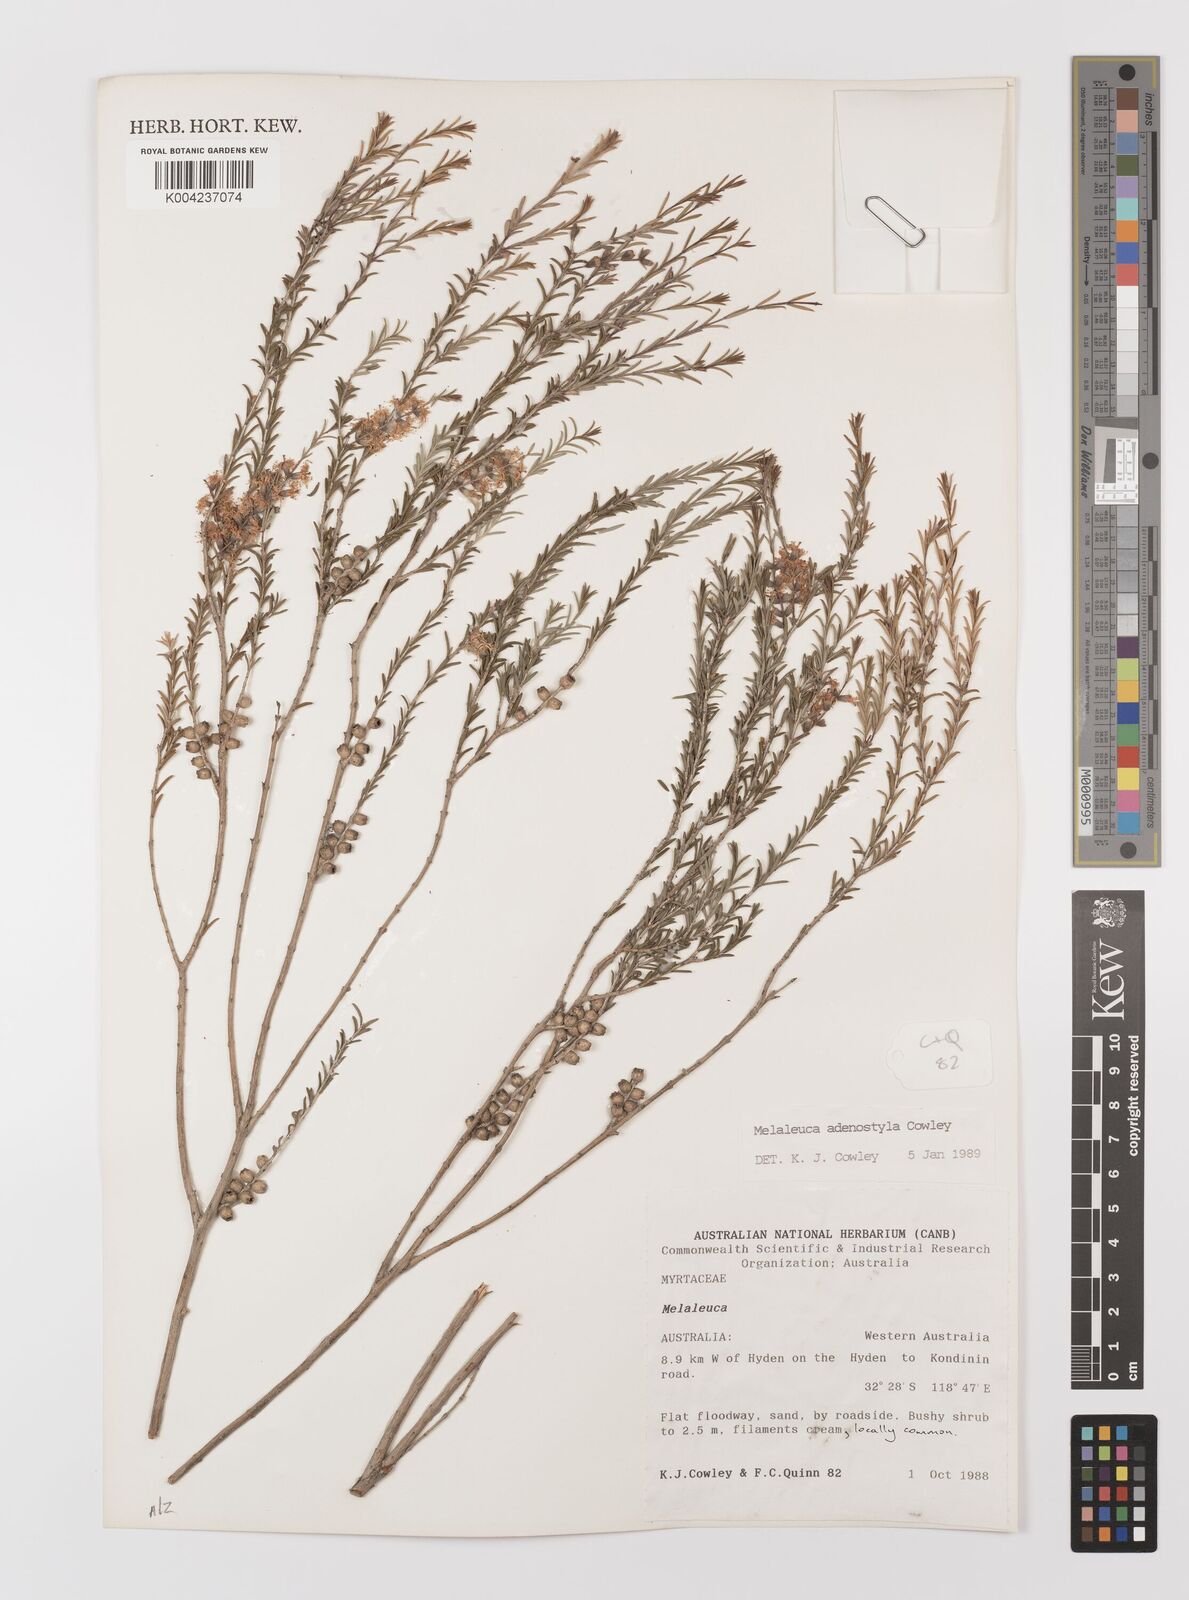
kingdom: Plantae
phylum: Tracheophyta
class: Magnoliopsida
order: Myrtales
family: Myrtaceae
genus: Melaleuca
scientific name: Melaleuca adenostyla
